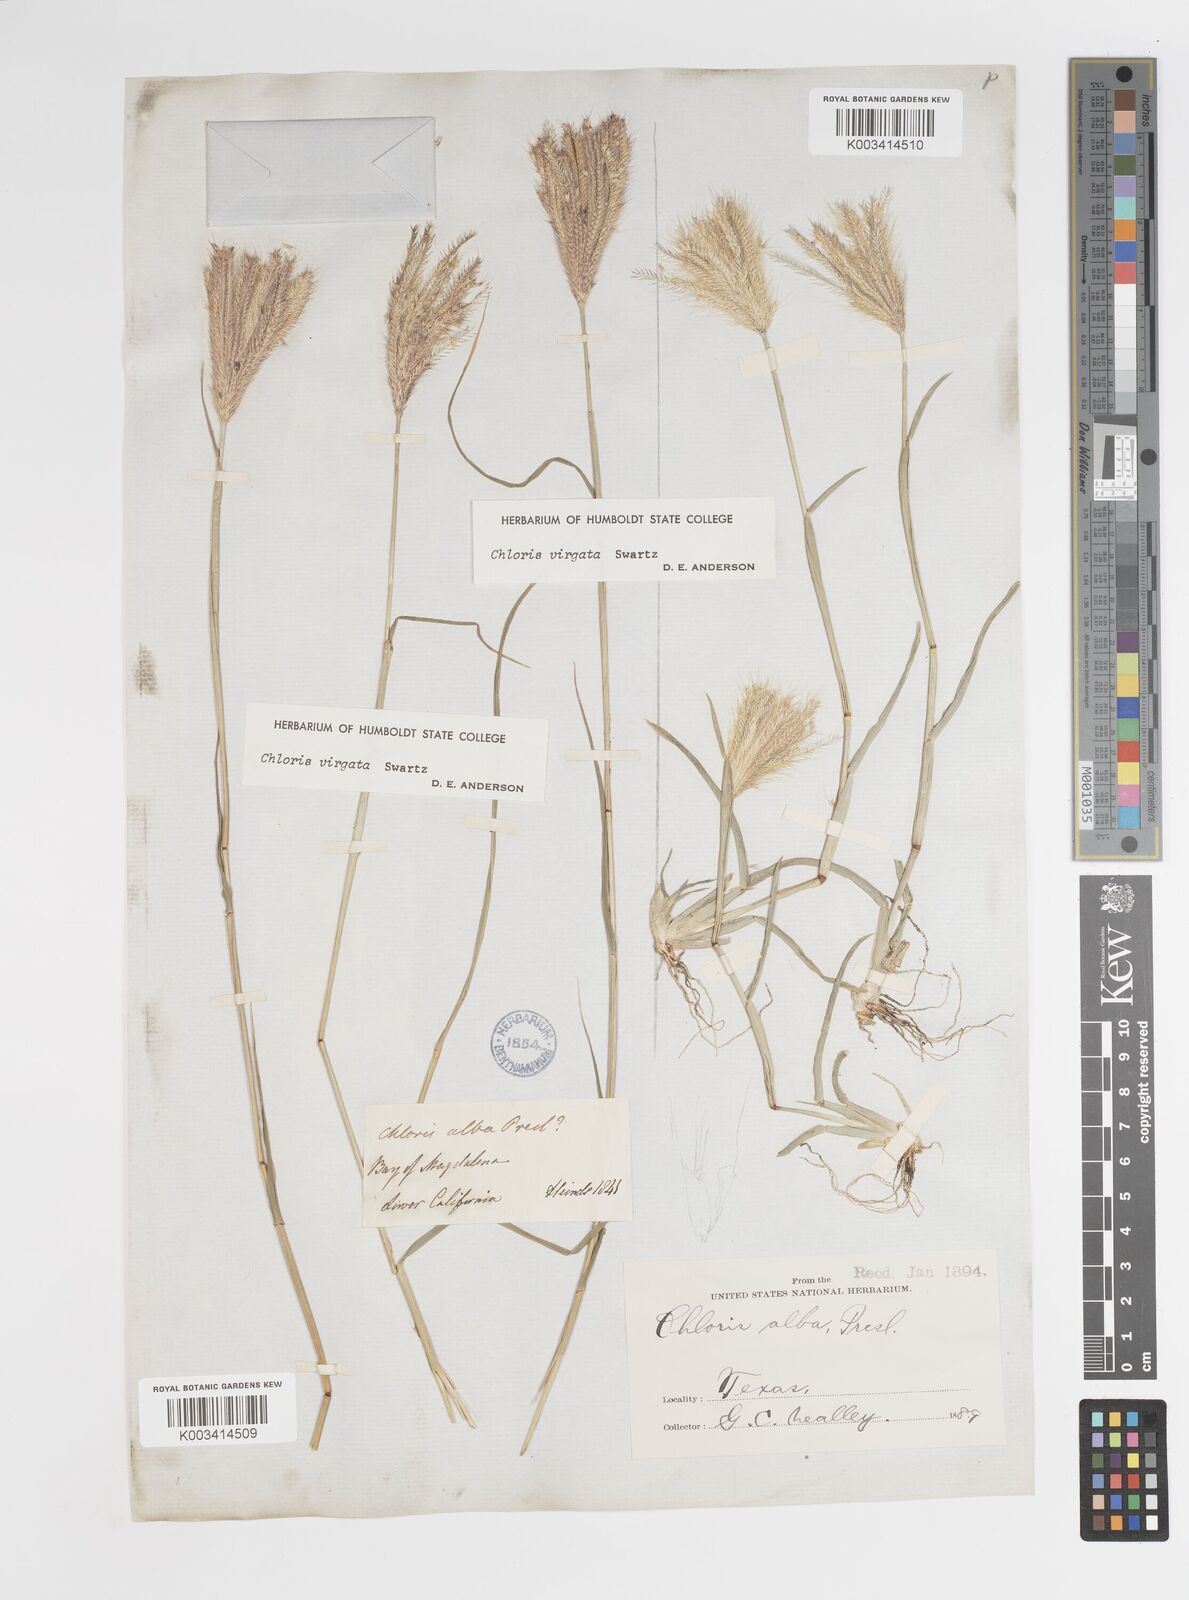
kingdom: Plantae
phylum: Tracheophyta
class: Liliopsida
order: Poales
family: Poaceae
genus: Chloris
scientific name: Chloris virgata
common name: Feathery rhodes-grass
